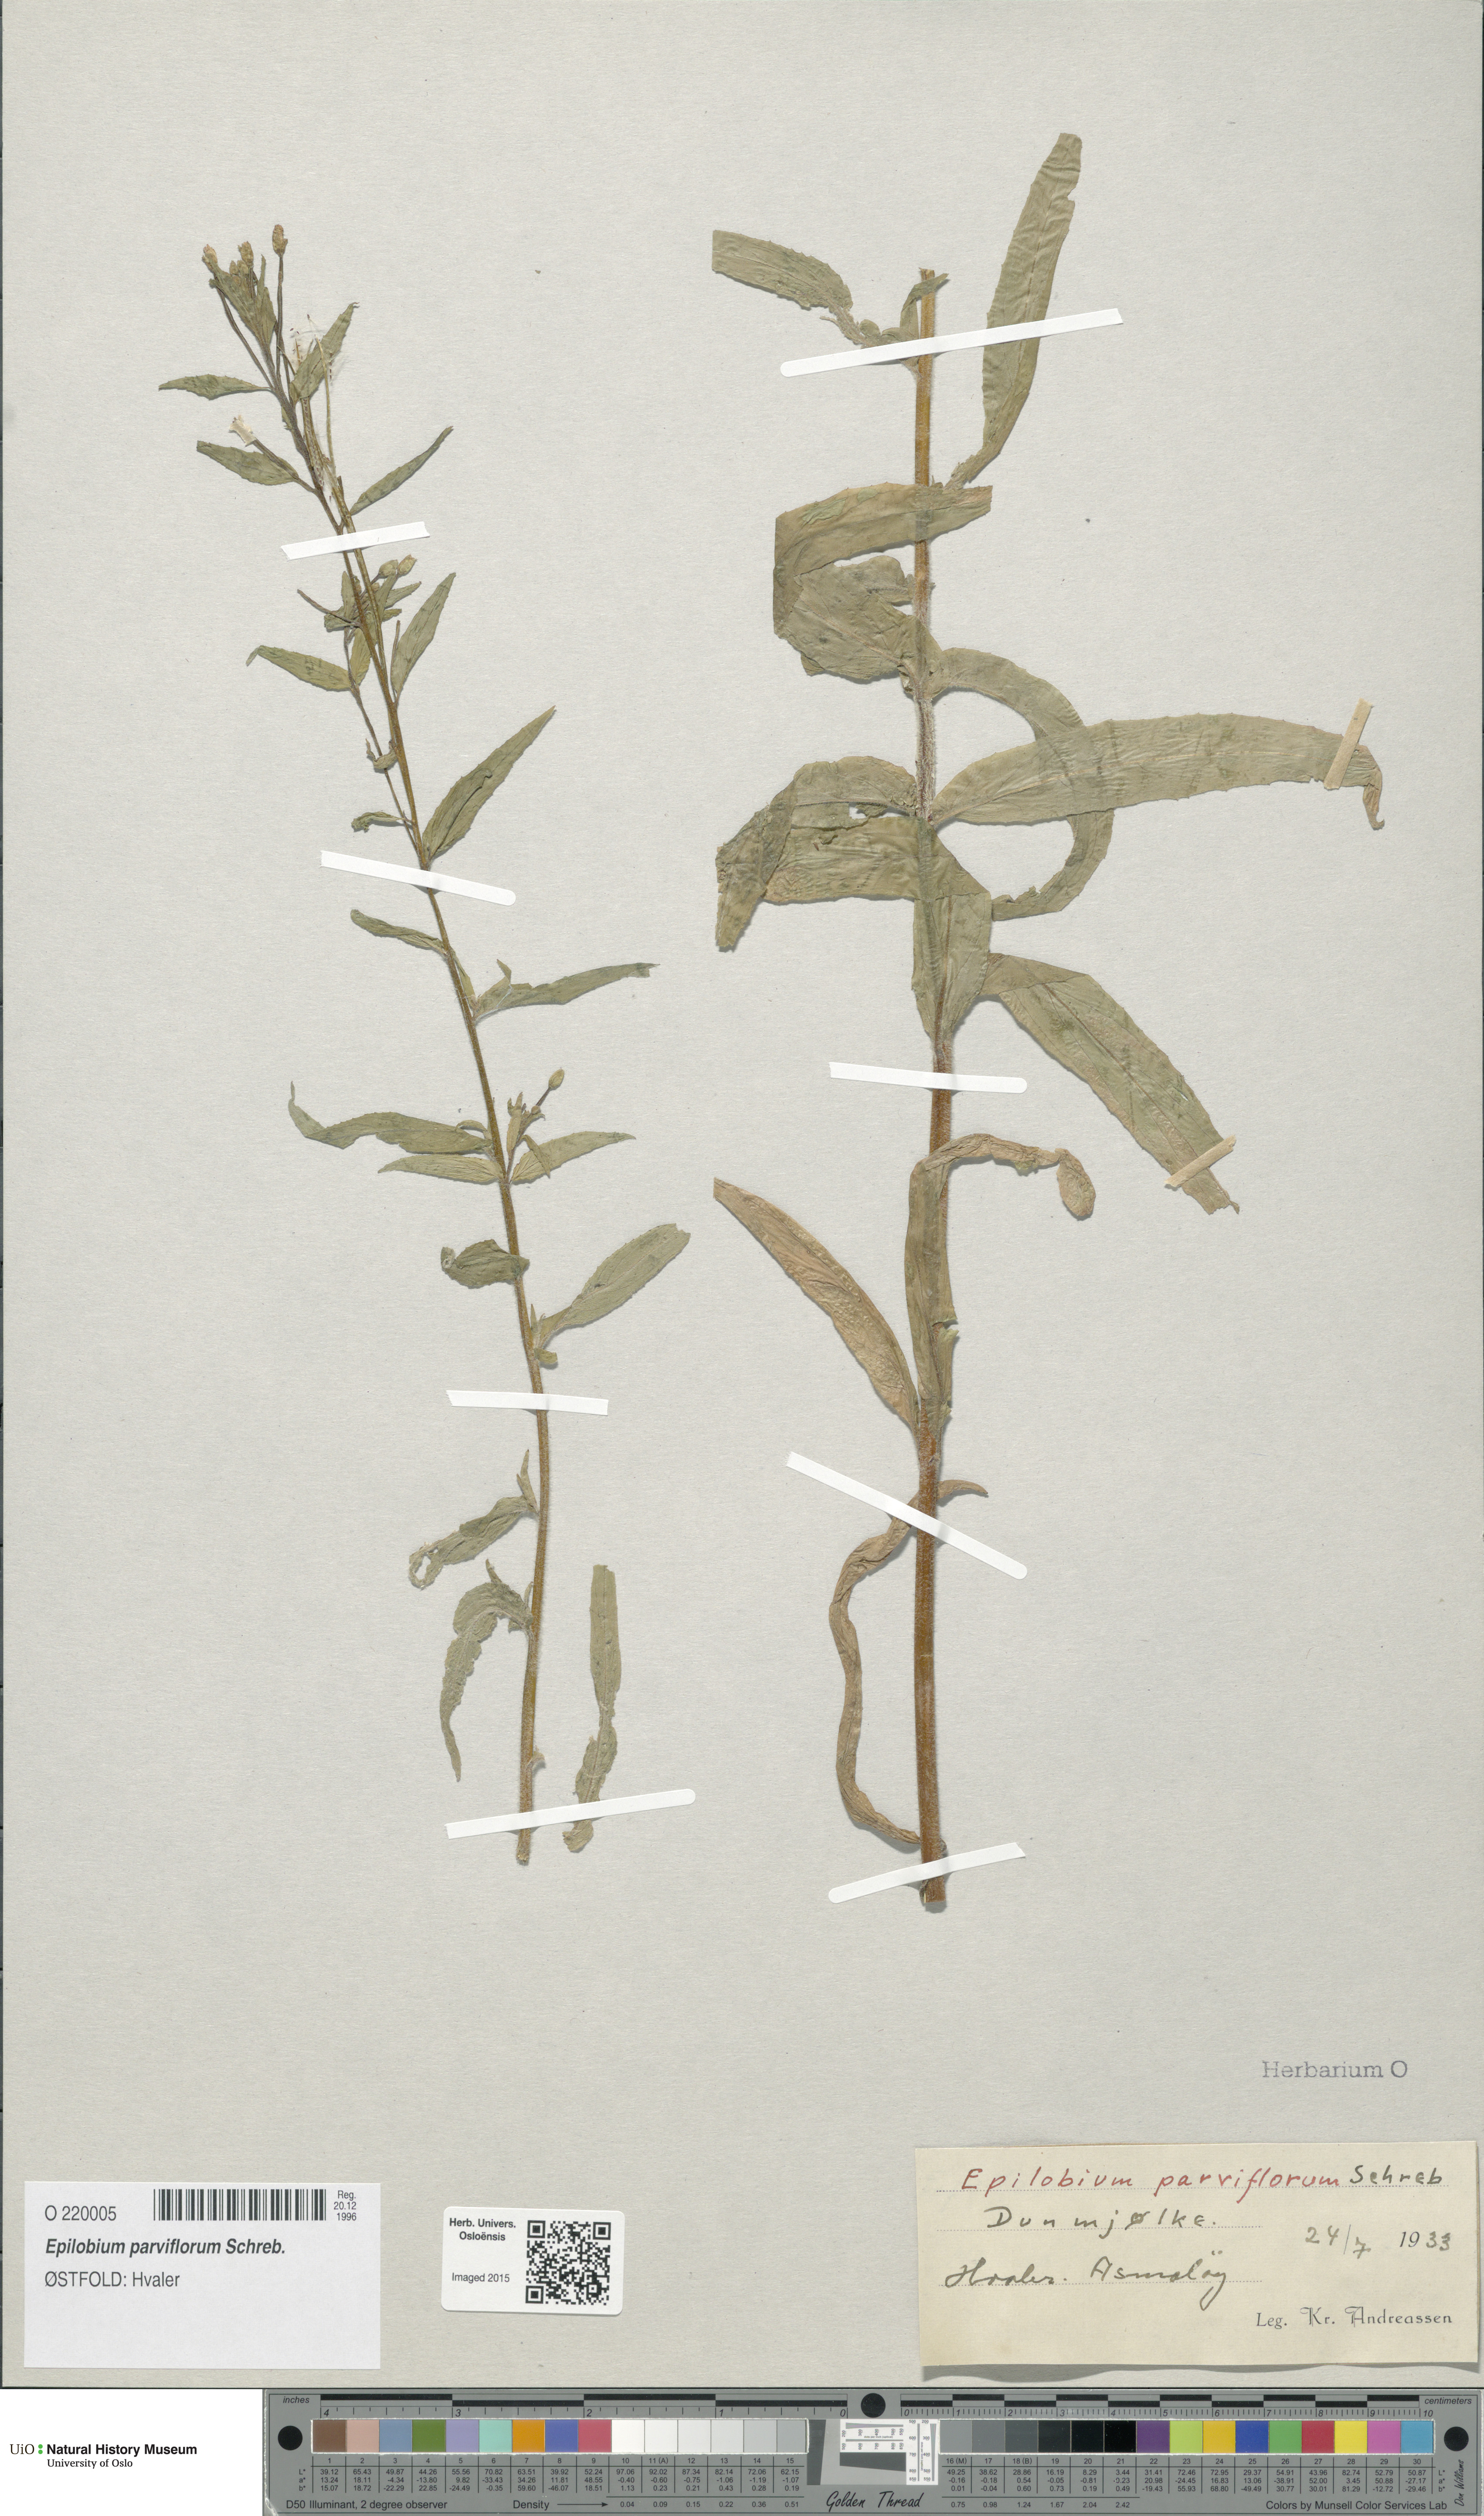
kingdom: Plantae
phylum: Tracheophyta
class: Magnoliopsida
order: Myrtales
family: Onagraceae
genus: Epilobium
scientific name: Epilobium parviflorum
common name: Hoary willowherb
